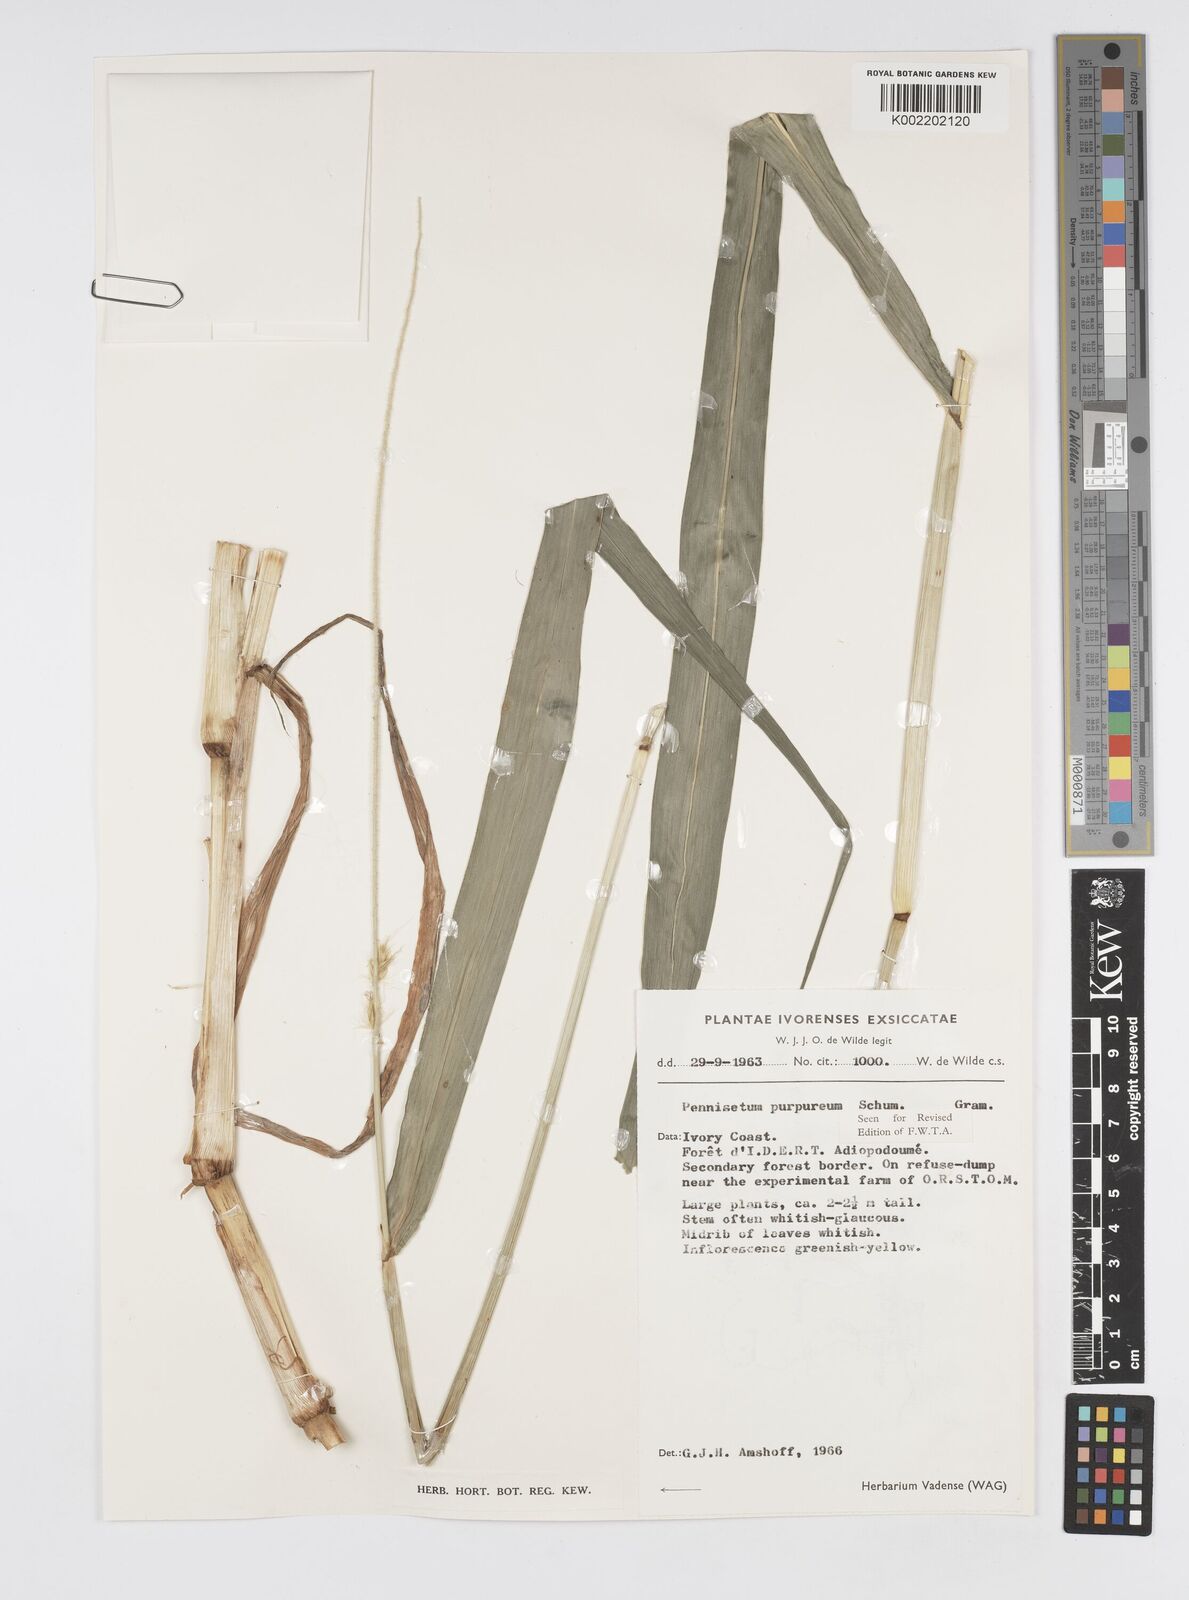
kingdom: Plantae
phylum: Tracheophyta
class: Liliopsida
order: Poales
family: Poaceae
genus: Cenchrus
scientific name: Cenchrus purpureus
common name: Elephant grass
